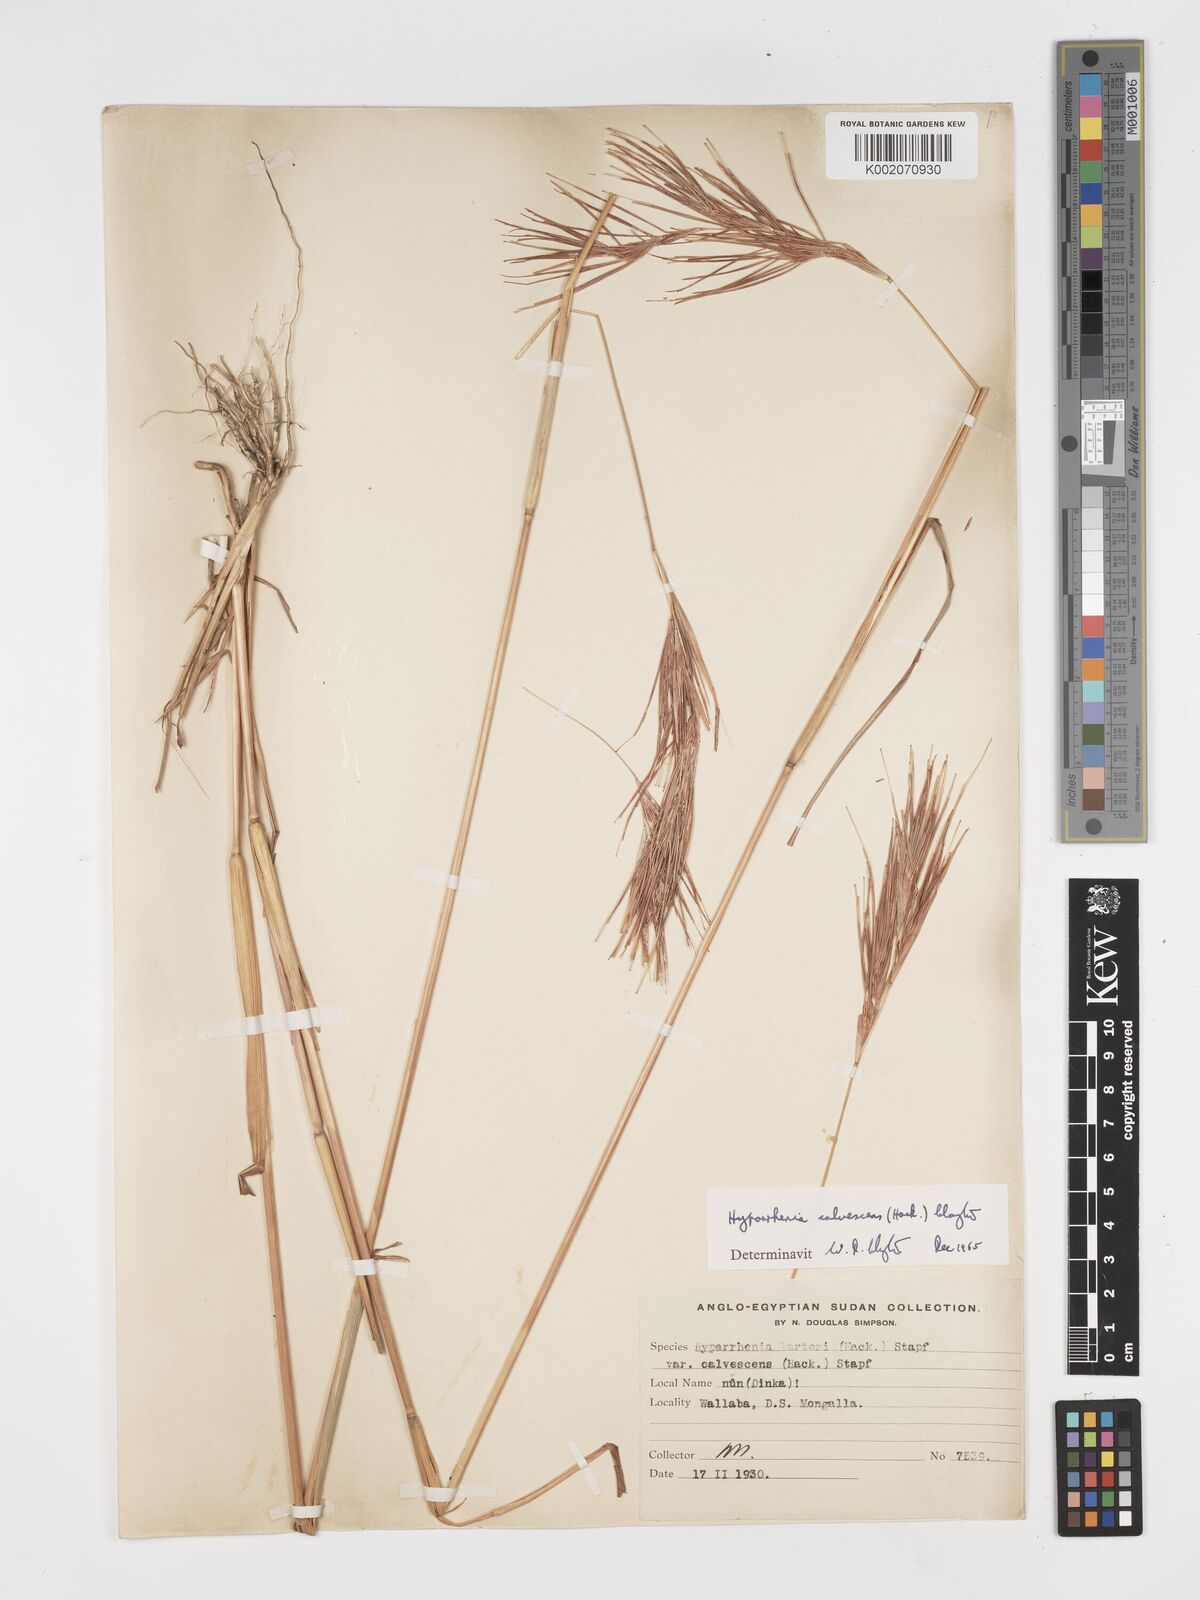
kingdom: Plantae
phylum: Tracheophyta
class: Liliopsida
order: Poales
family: Poaceae
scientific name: Poaceae
